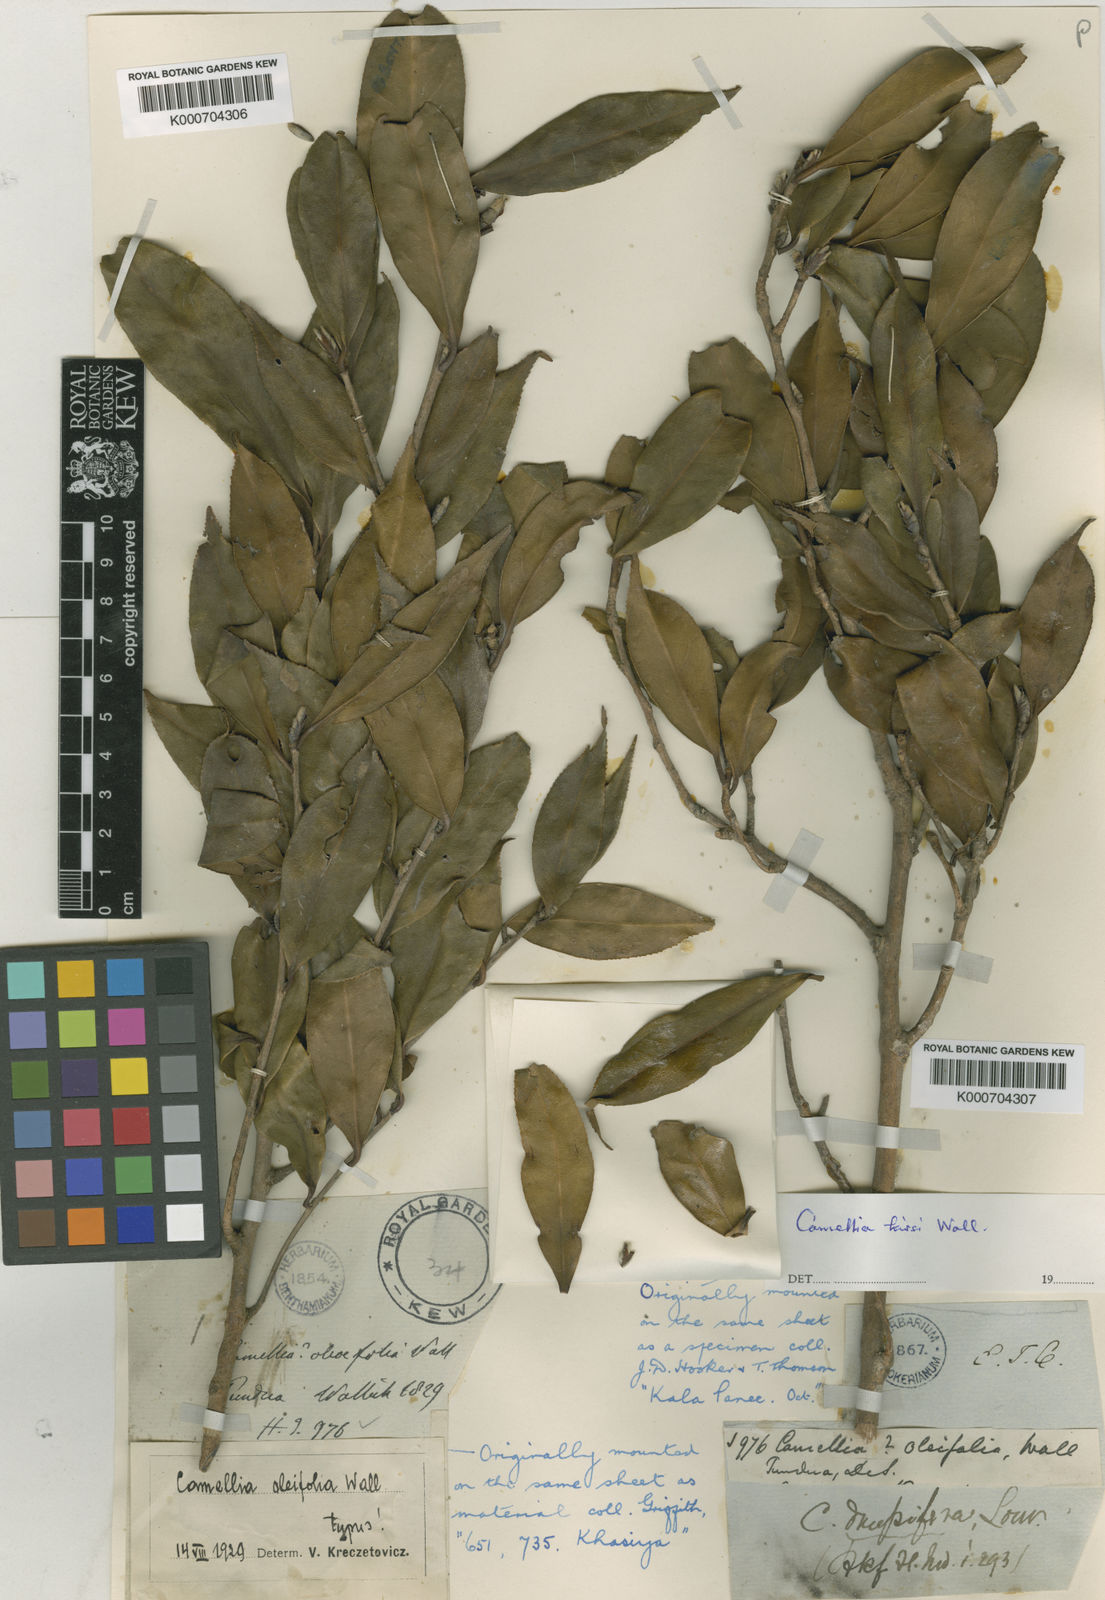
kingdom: Plantae
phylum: Tracheophyta
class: Magnoliopsida
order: Ericales
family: Theaceae
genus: Camellia
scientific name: Camellia
